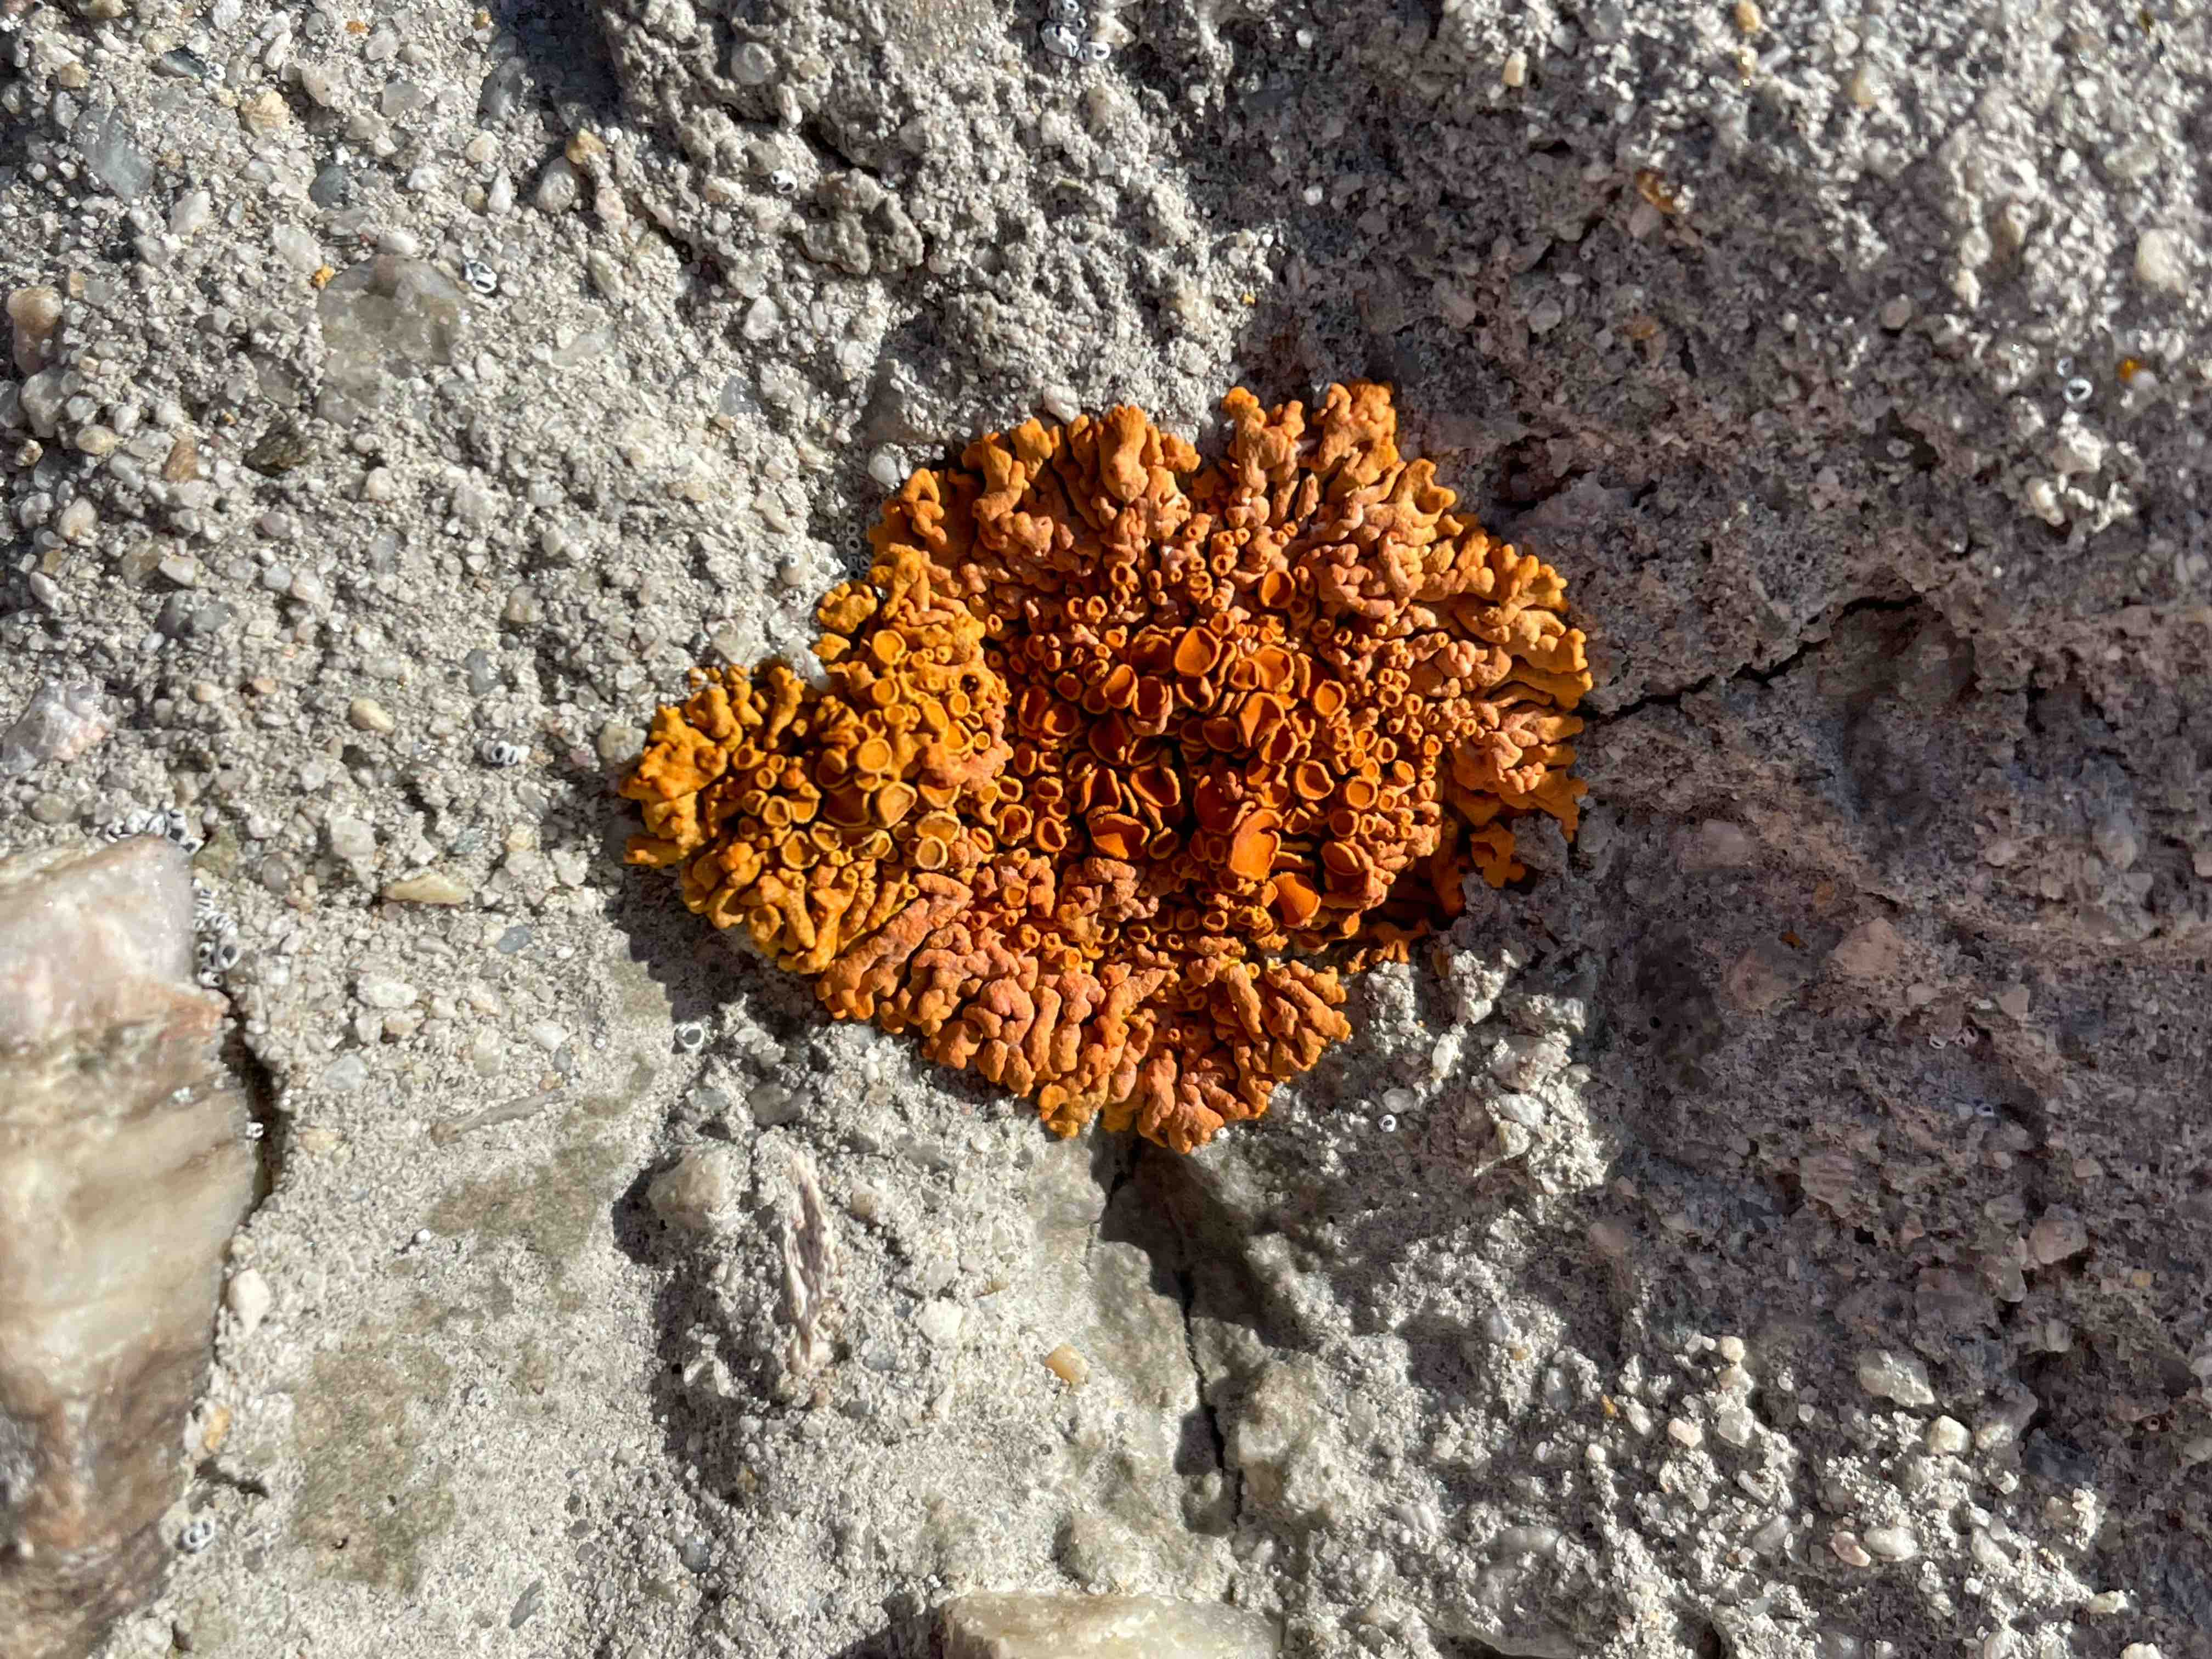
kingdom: Fungi
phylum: Ascomycota
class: Lecanoromycetes
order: Teloschistales
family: Teloschistaceae
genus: Xanthoria
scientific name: Xanthoria elegans
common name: fjeld-væggelav
